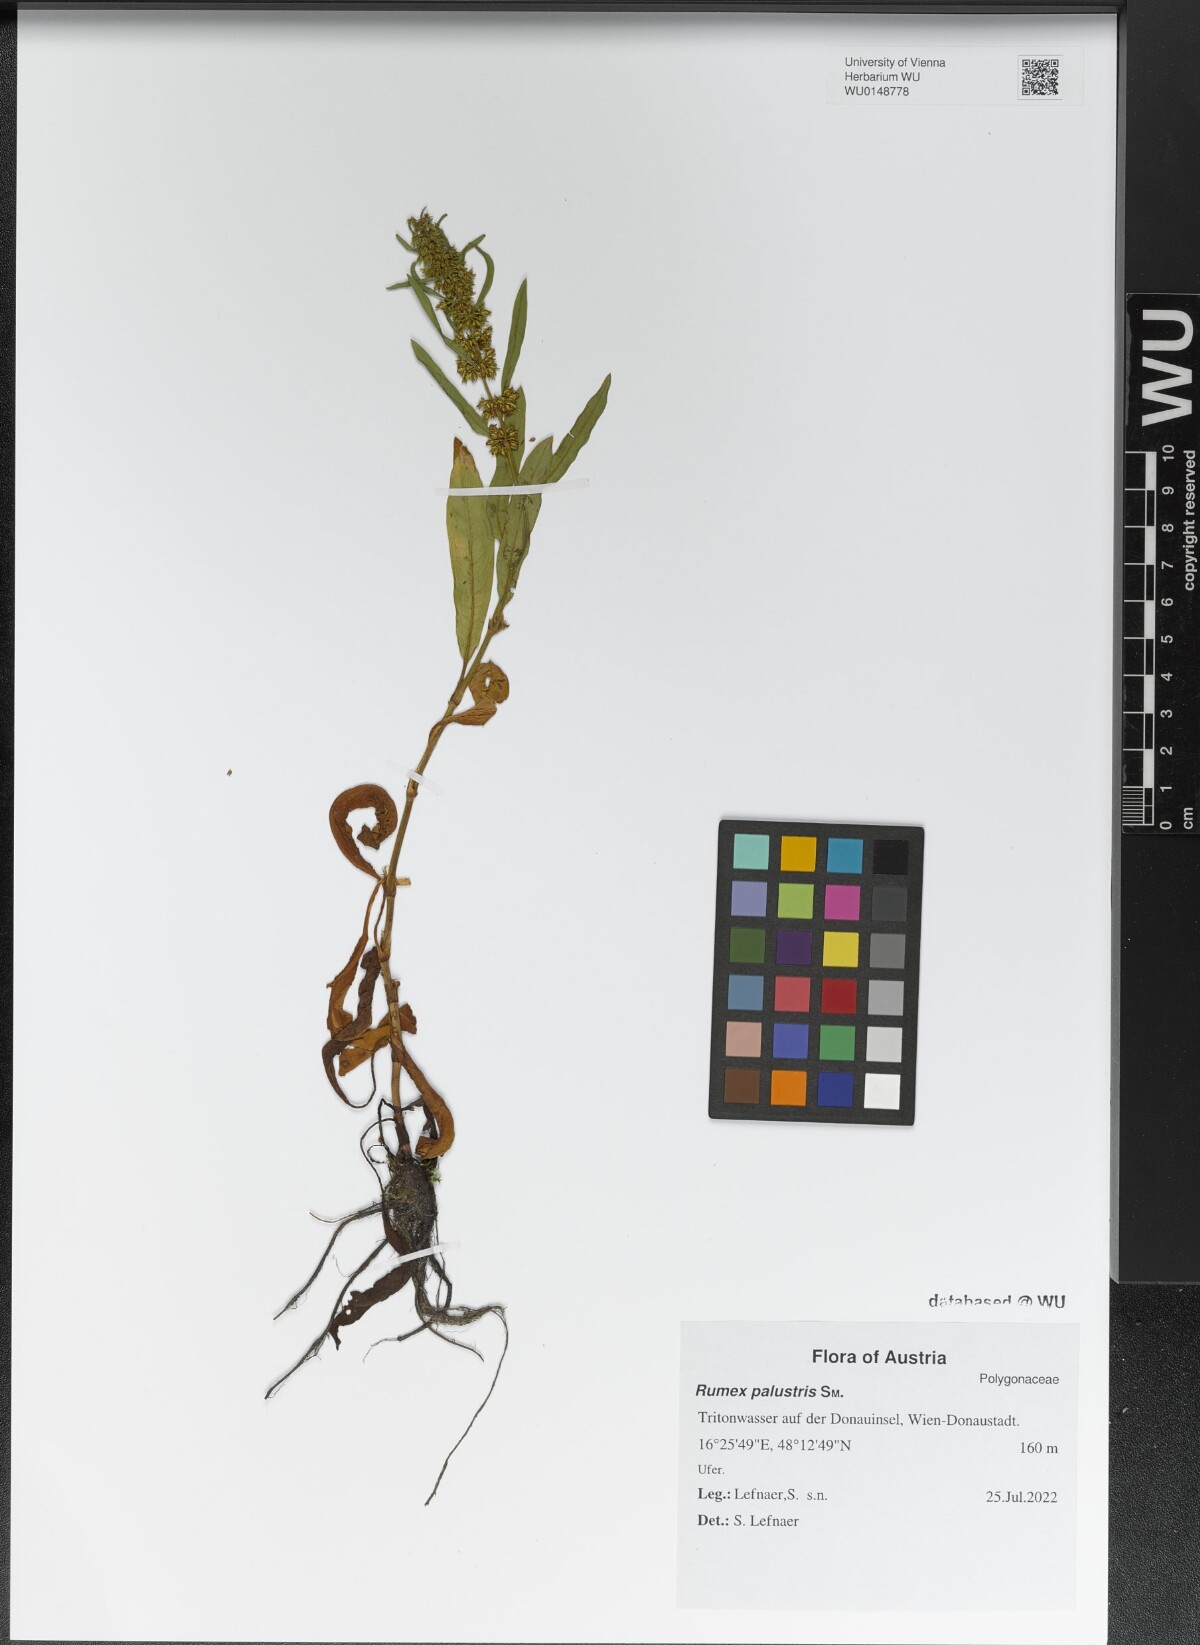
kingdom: Plantae
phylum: Tracheophyta
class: Magnoliopsida
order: Caryophyllales
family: Polygonaceae
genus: Rumex
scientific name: Rumex palustris
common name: Marsh dock
